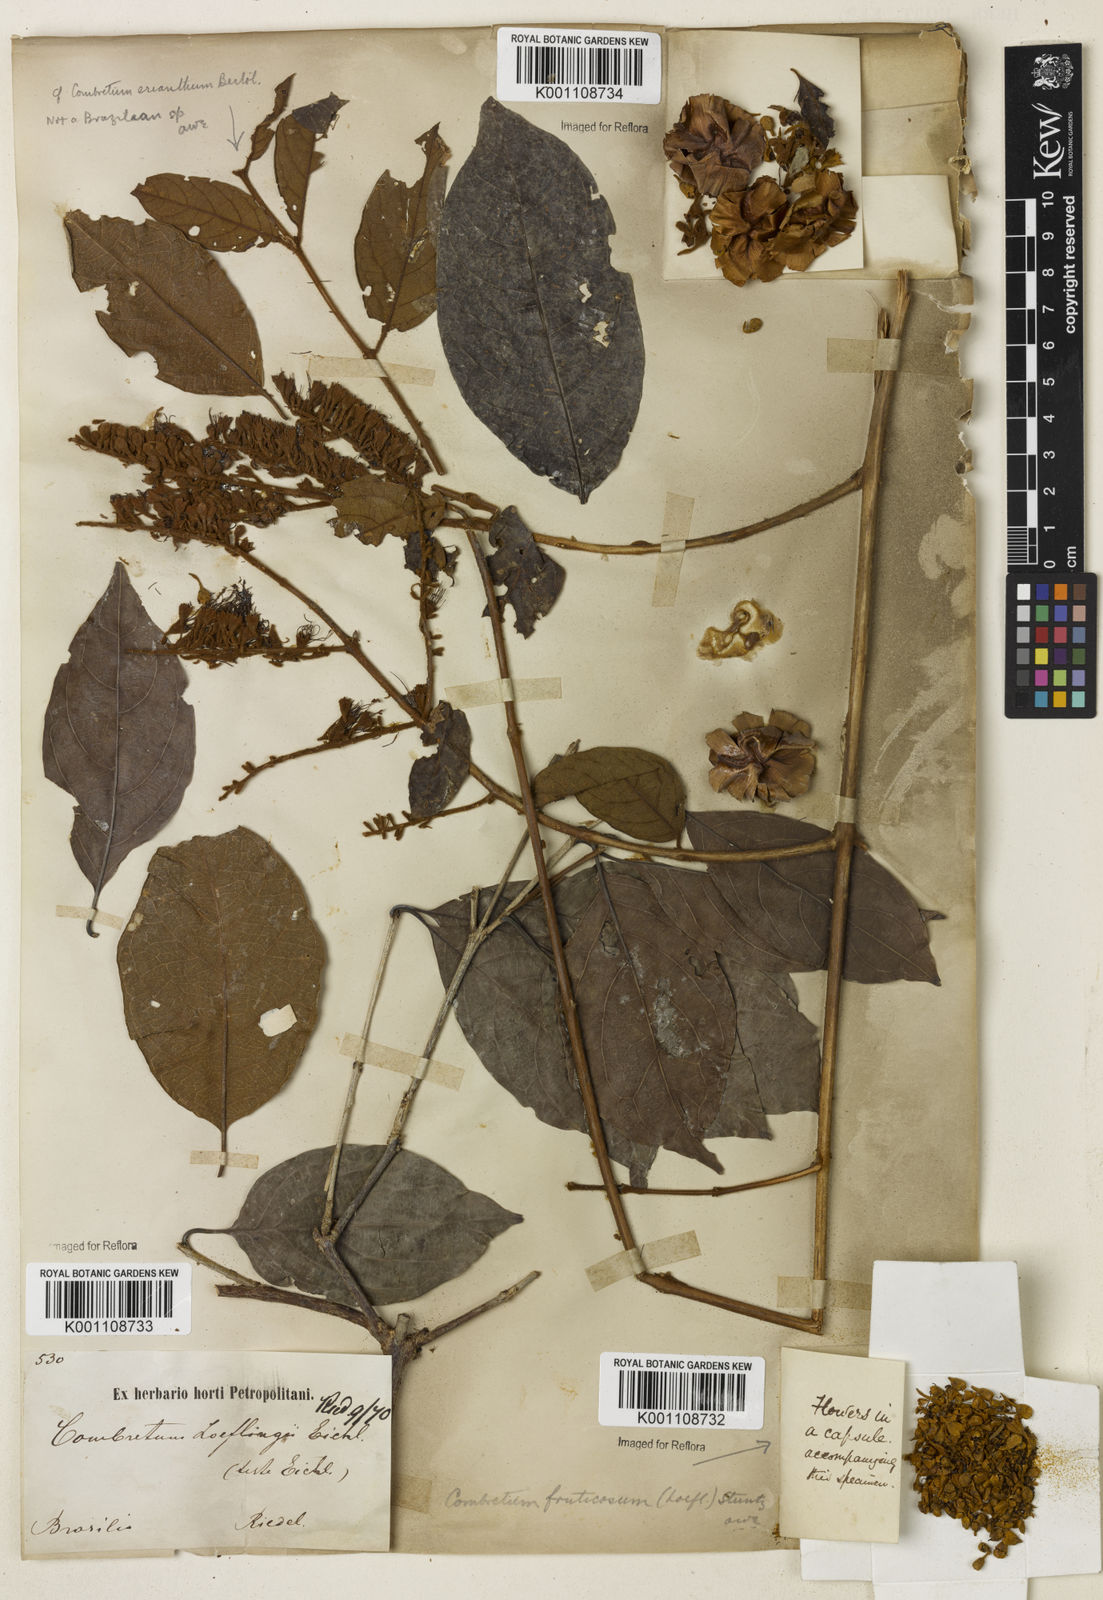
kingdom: Plantae
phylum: Tracheophyta
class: Magnoliopsida
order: Myrtales
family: Combretaceae
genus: Combretum
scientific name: Combretum fruticosum
